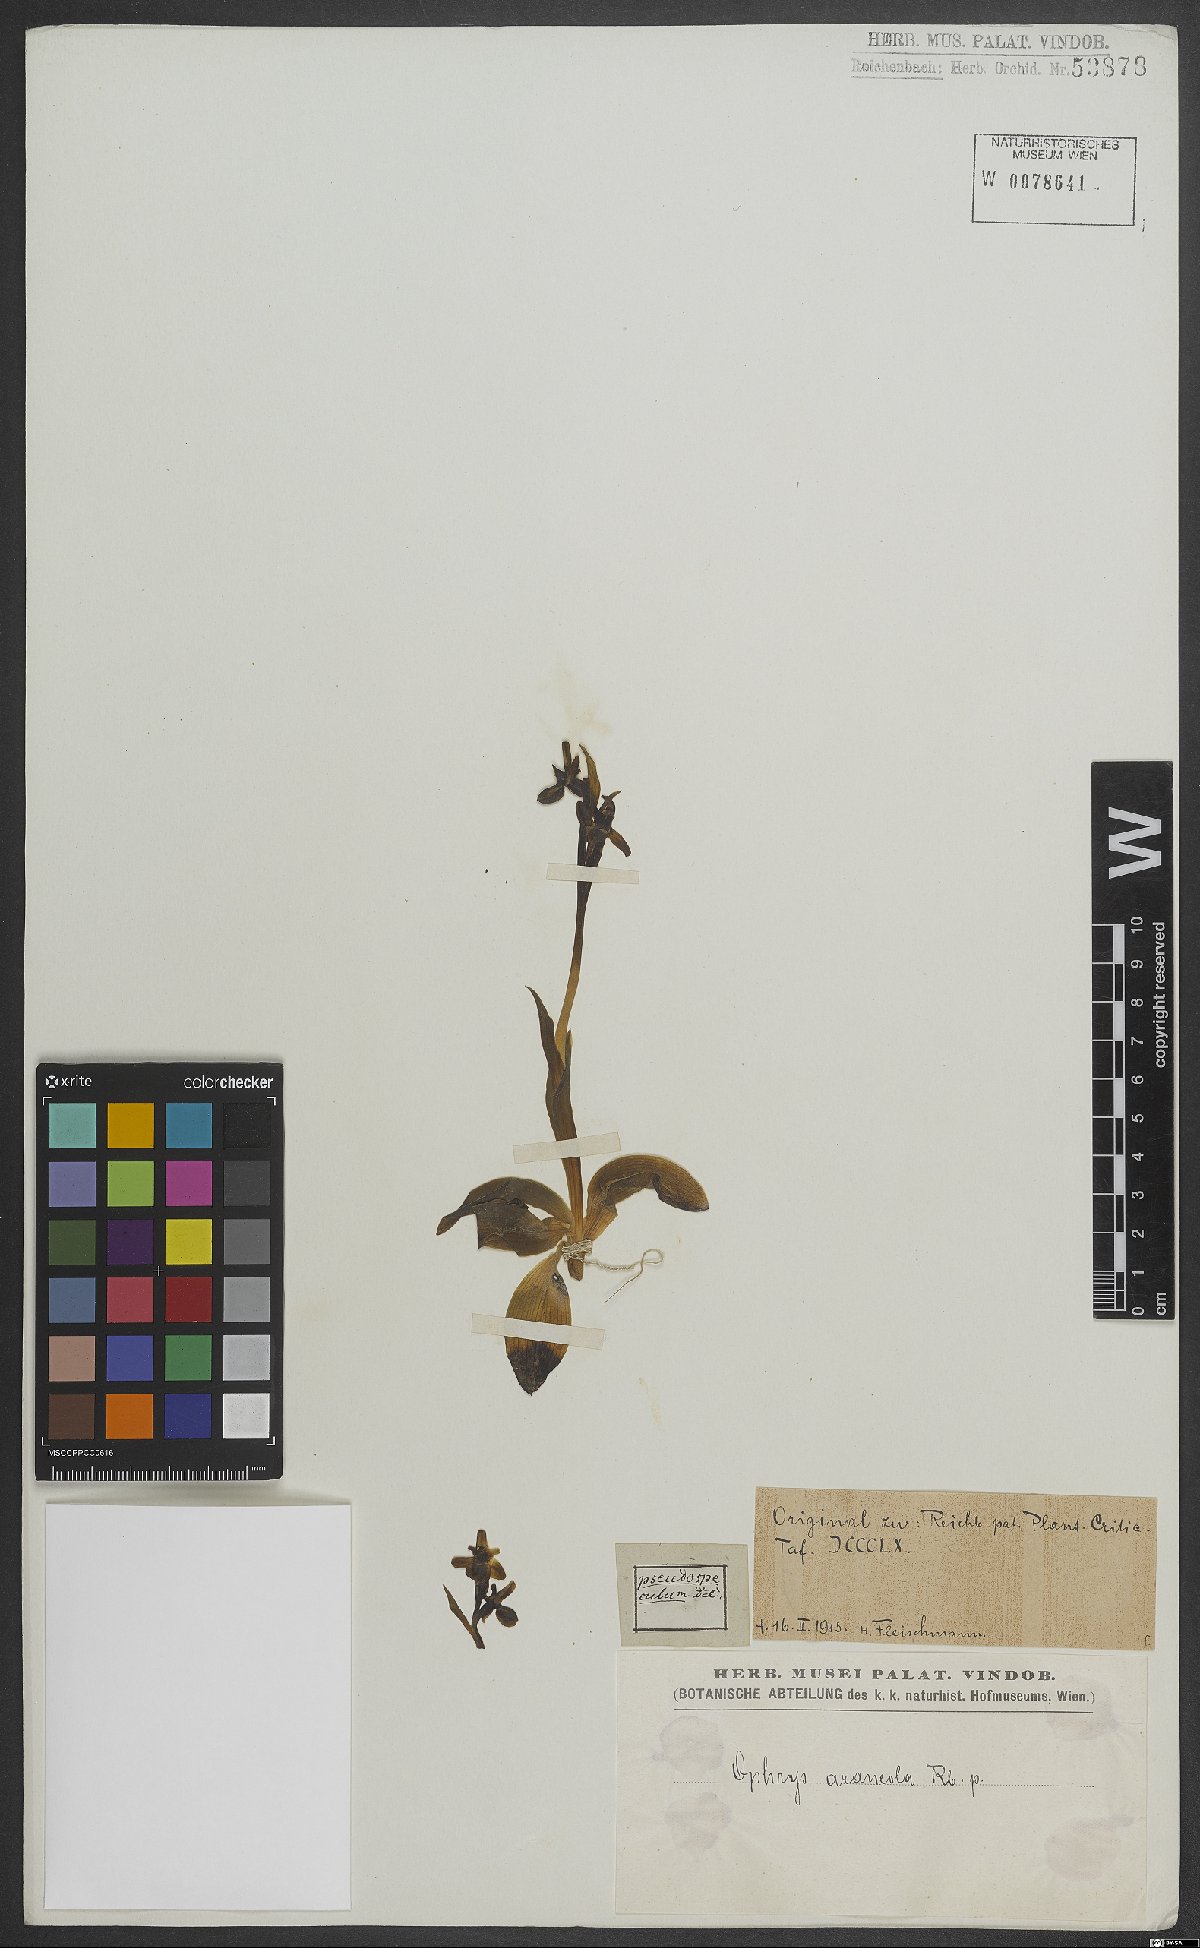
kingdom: Plantae
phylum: Tracheophyta
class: Liliopsida
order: Asparagales
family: Orchidaceae
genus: Ophrys
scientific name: Ophrys sphegodes
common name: Early spider-orchid
